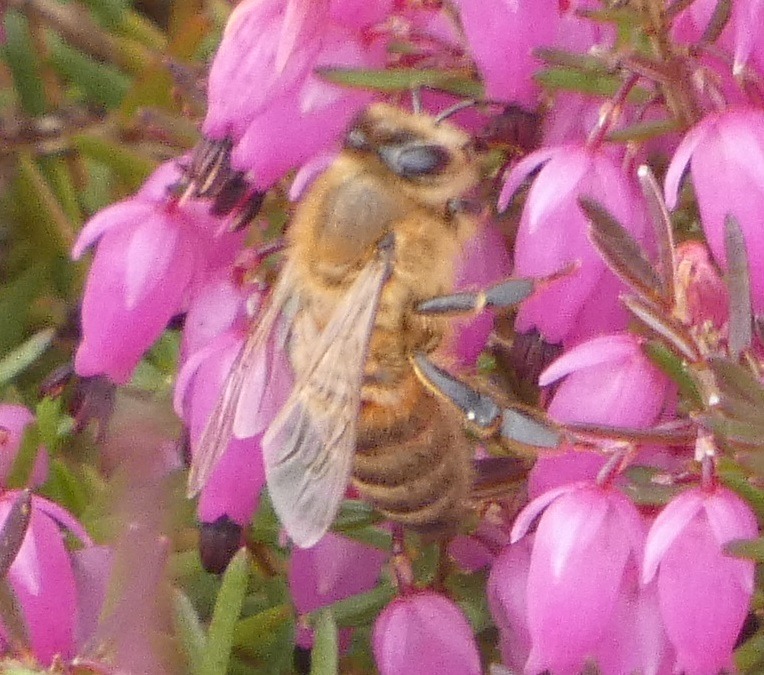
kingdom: Animalia
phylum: Arthropoda
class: Insecta
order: Hymenoptera
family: Apidae
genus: Apis
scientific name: Apis mellifera
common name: Honningbi
